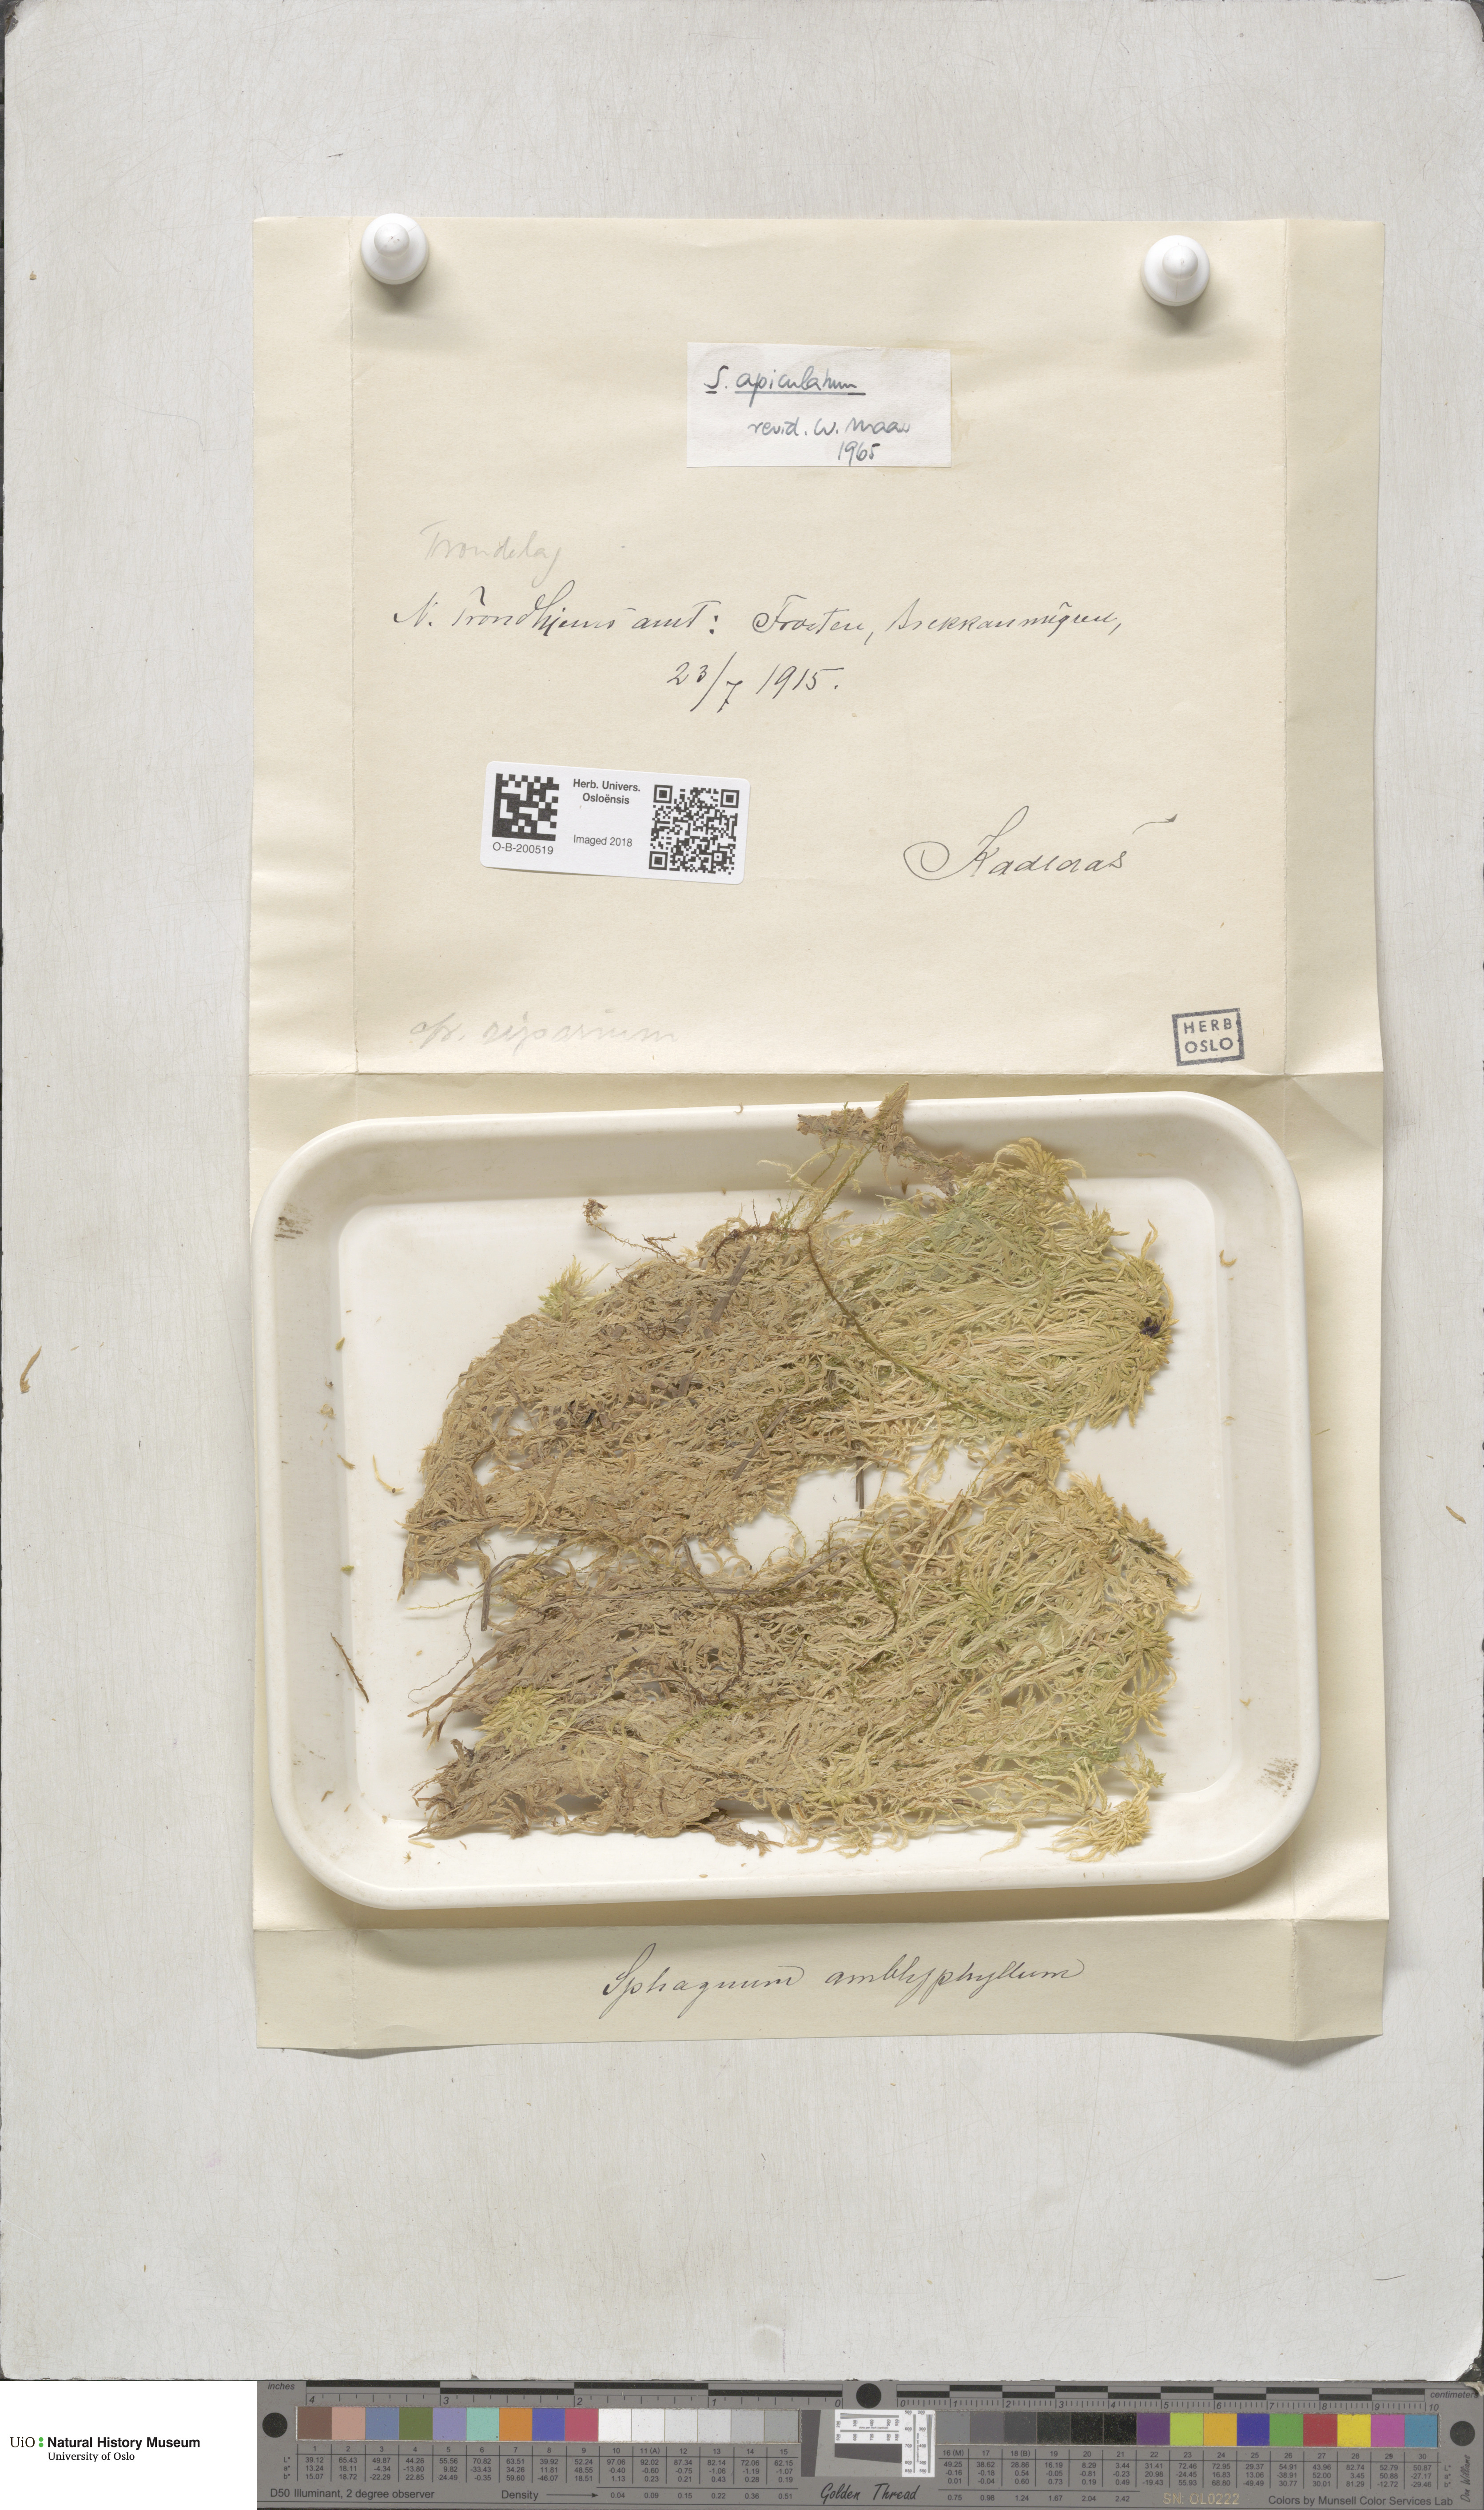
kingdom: Plantae
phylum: Bryophyta
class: Sphagnopsida
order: Sphagnales
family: Sphagnaceae
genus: Sphagnum
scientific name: Sphagnum fallax
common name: Flat-top peat moss
